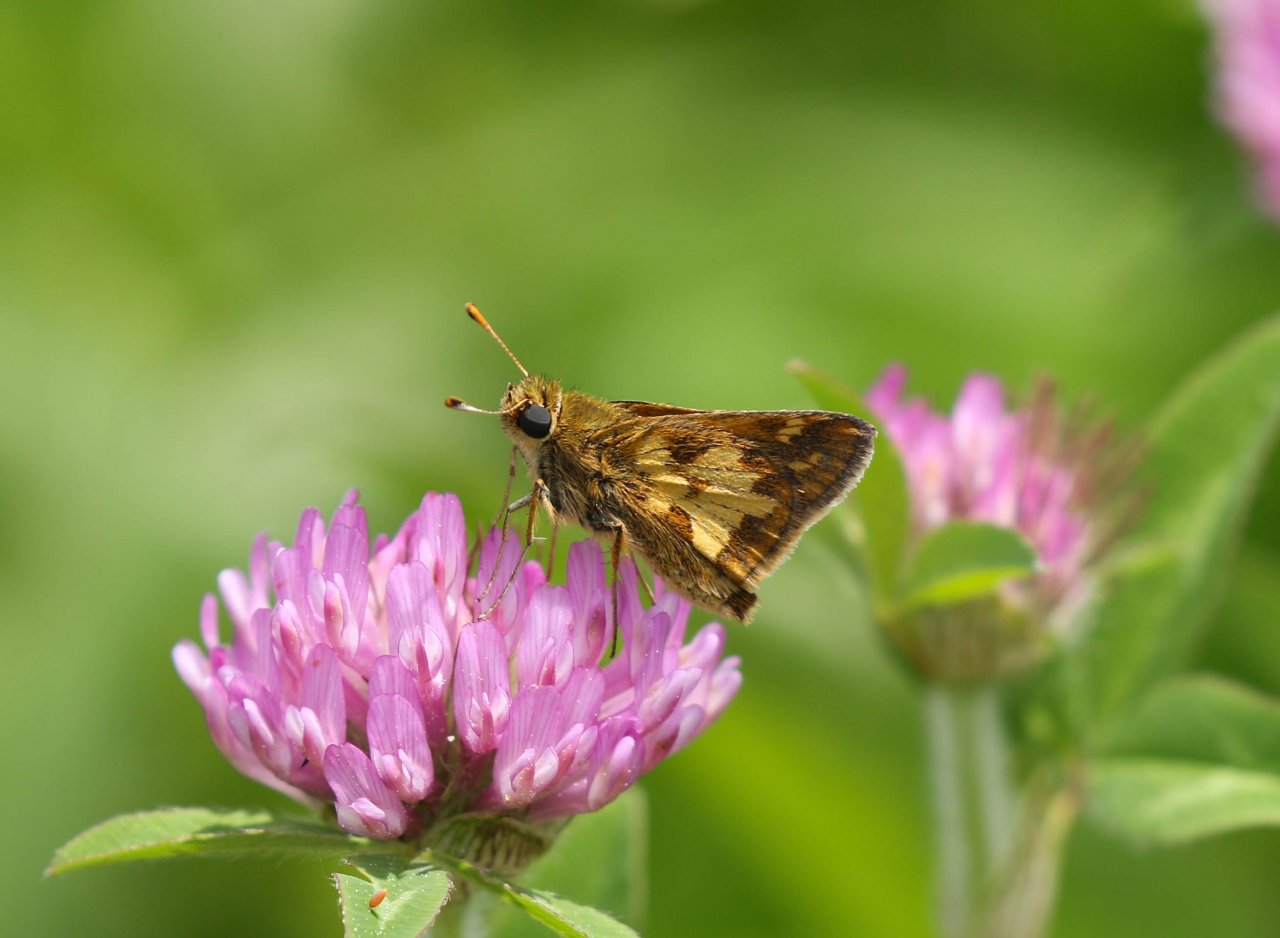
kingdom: Animalia
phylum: Arthropoda
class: Insecta
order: Lepidoptera
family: Hesperiidae
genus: Polites
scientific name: Polites coras
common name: Peck's Skipper
